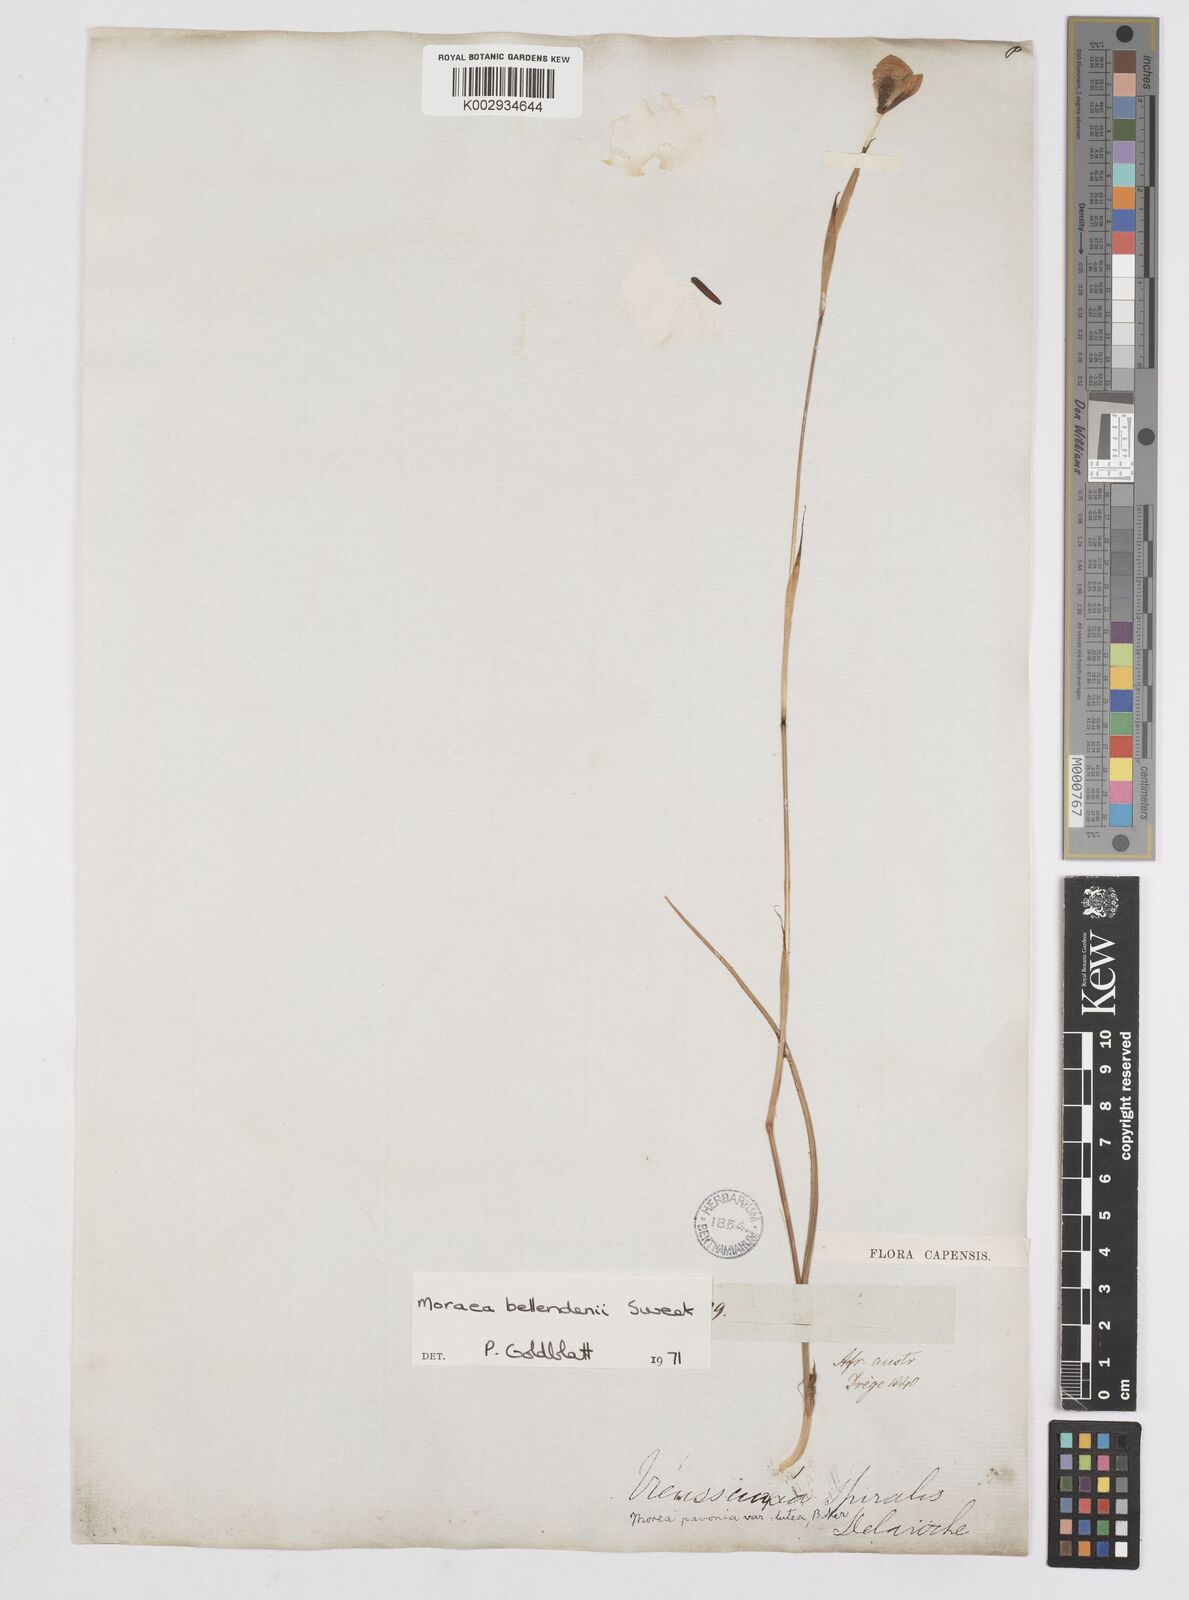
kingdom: Plantae
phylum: Tracheophyta
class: Liliopsida
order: Asparagales
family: Iridaceae
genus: Moraea
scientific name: Moraea bellendenii
